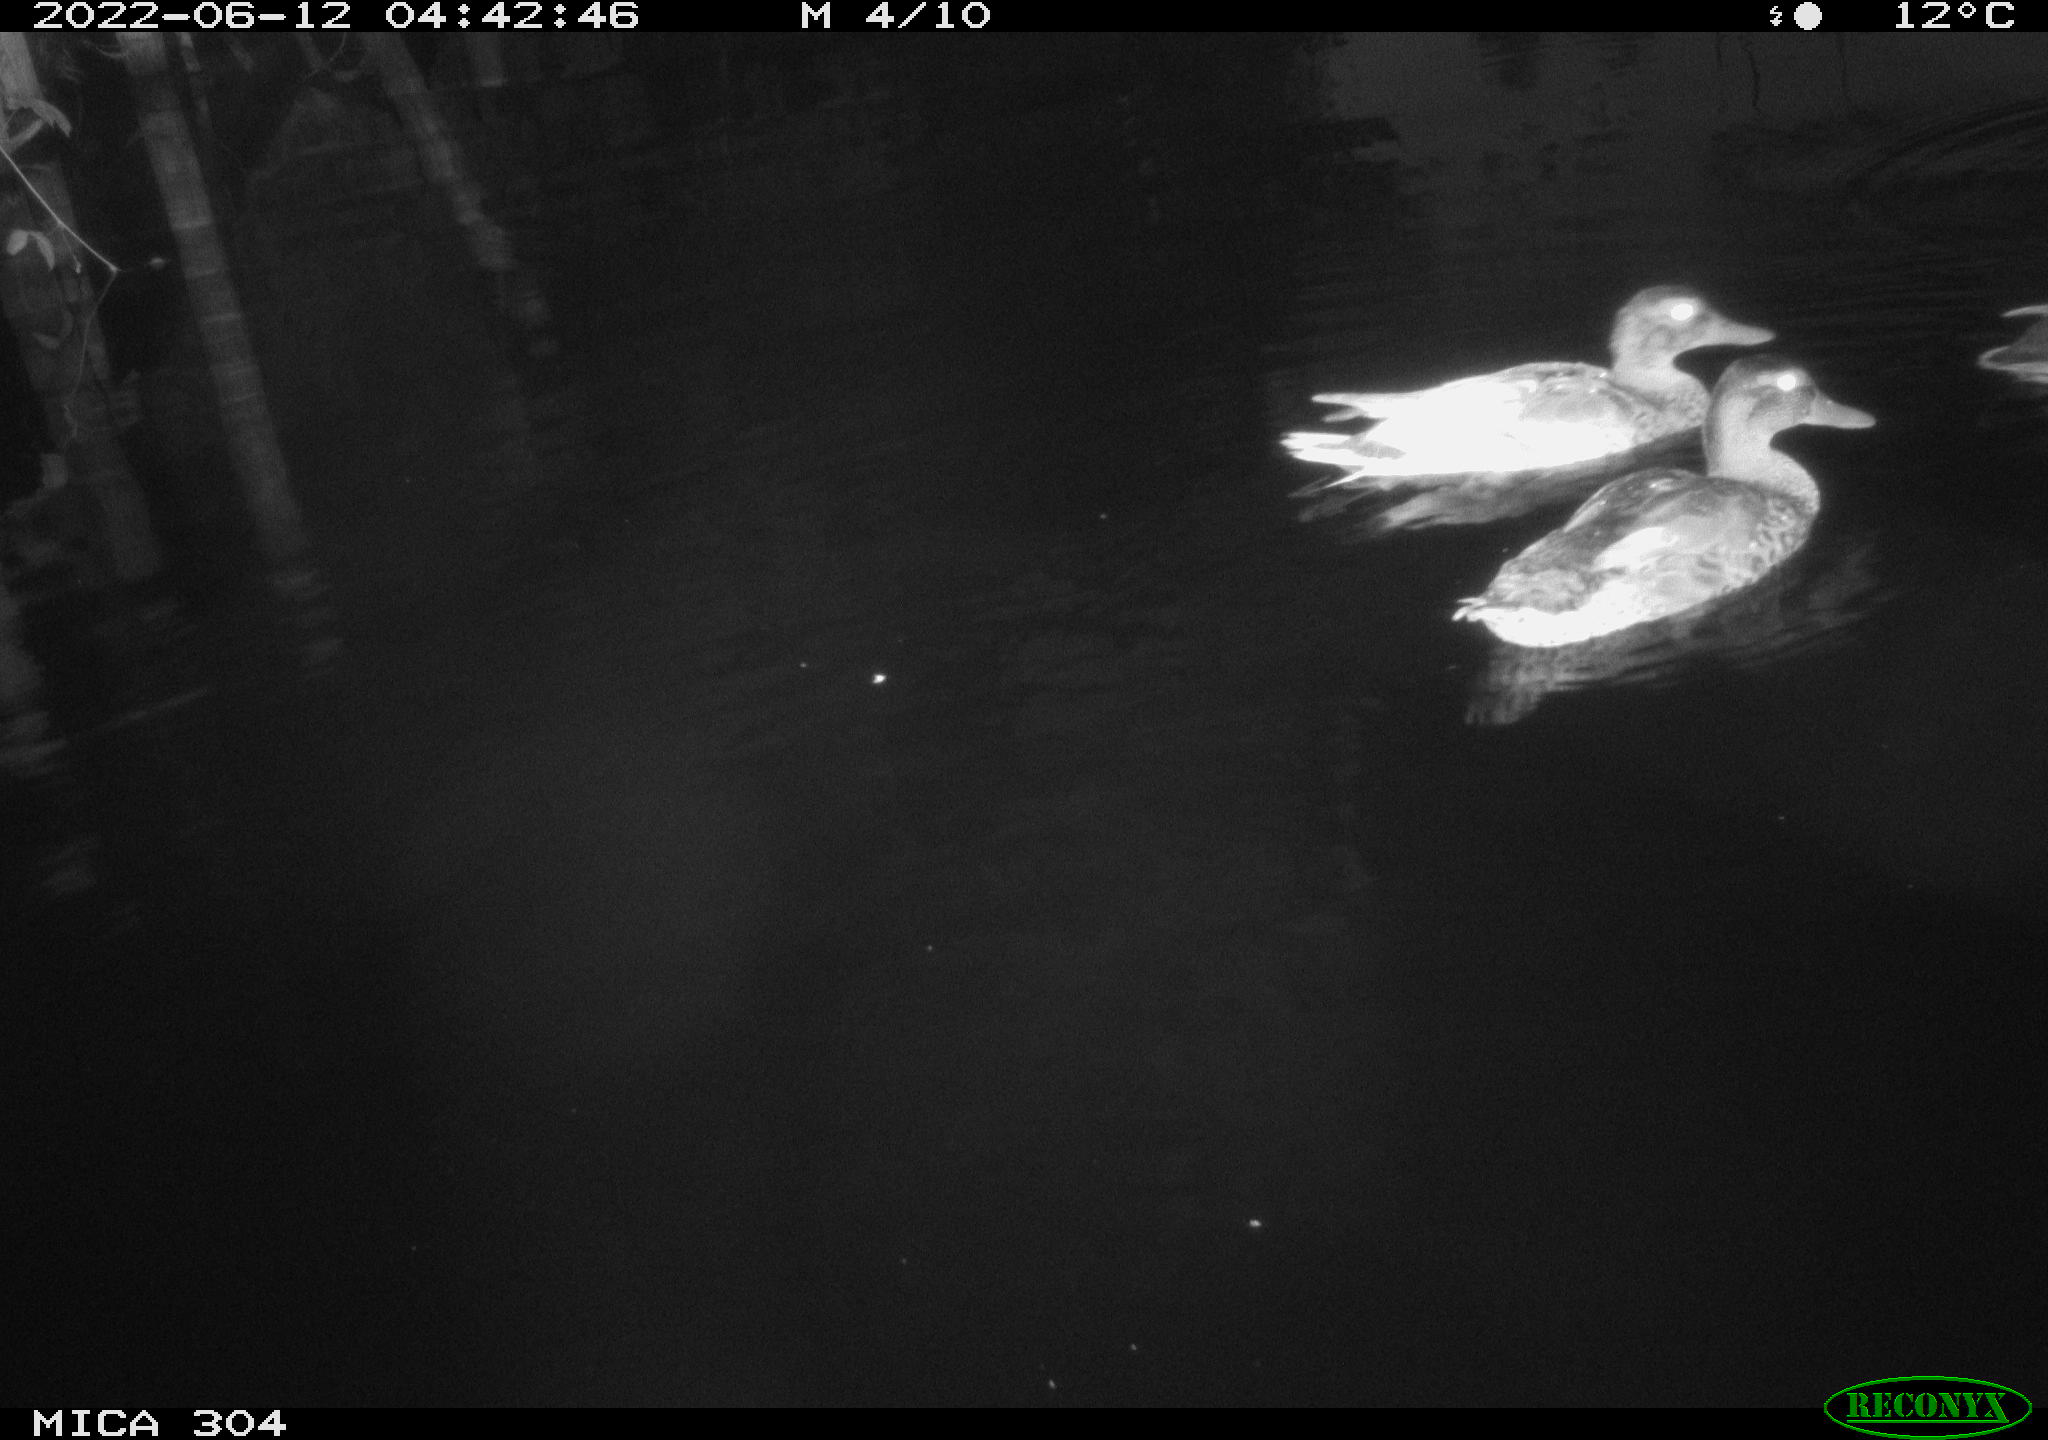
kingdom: Animalia
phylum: Chordata
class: Aves
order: Anseriformes
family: Anatidae
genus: Anas
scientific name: Anas platyrhynchos
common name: Mallard
